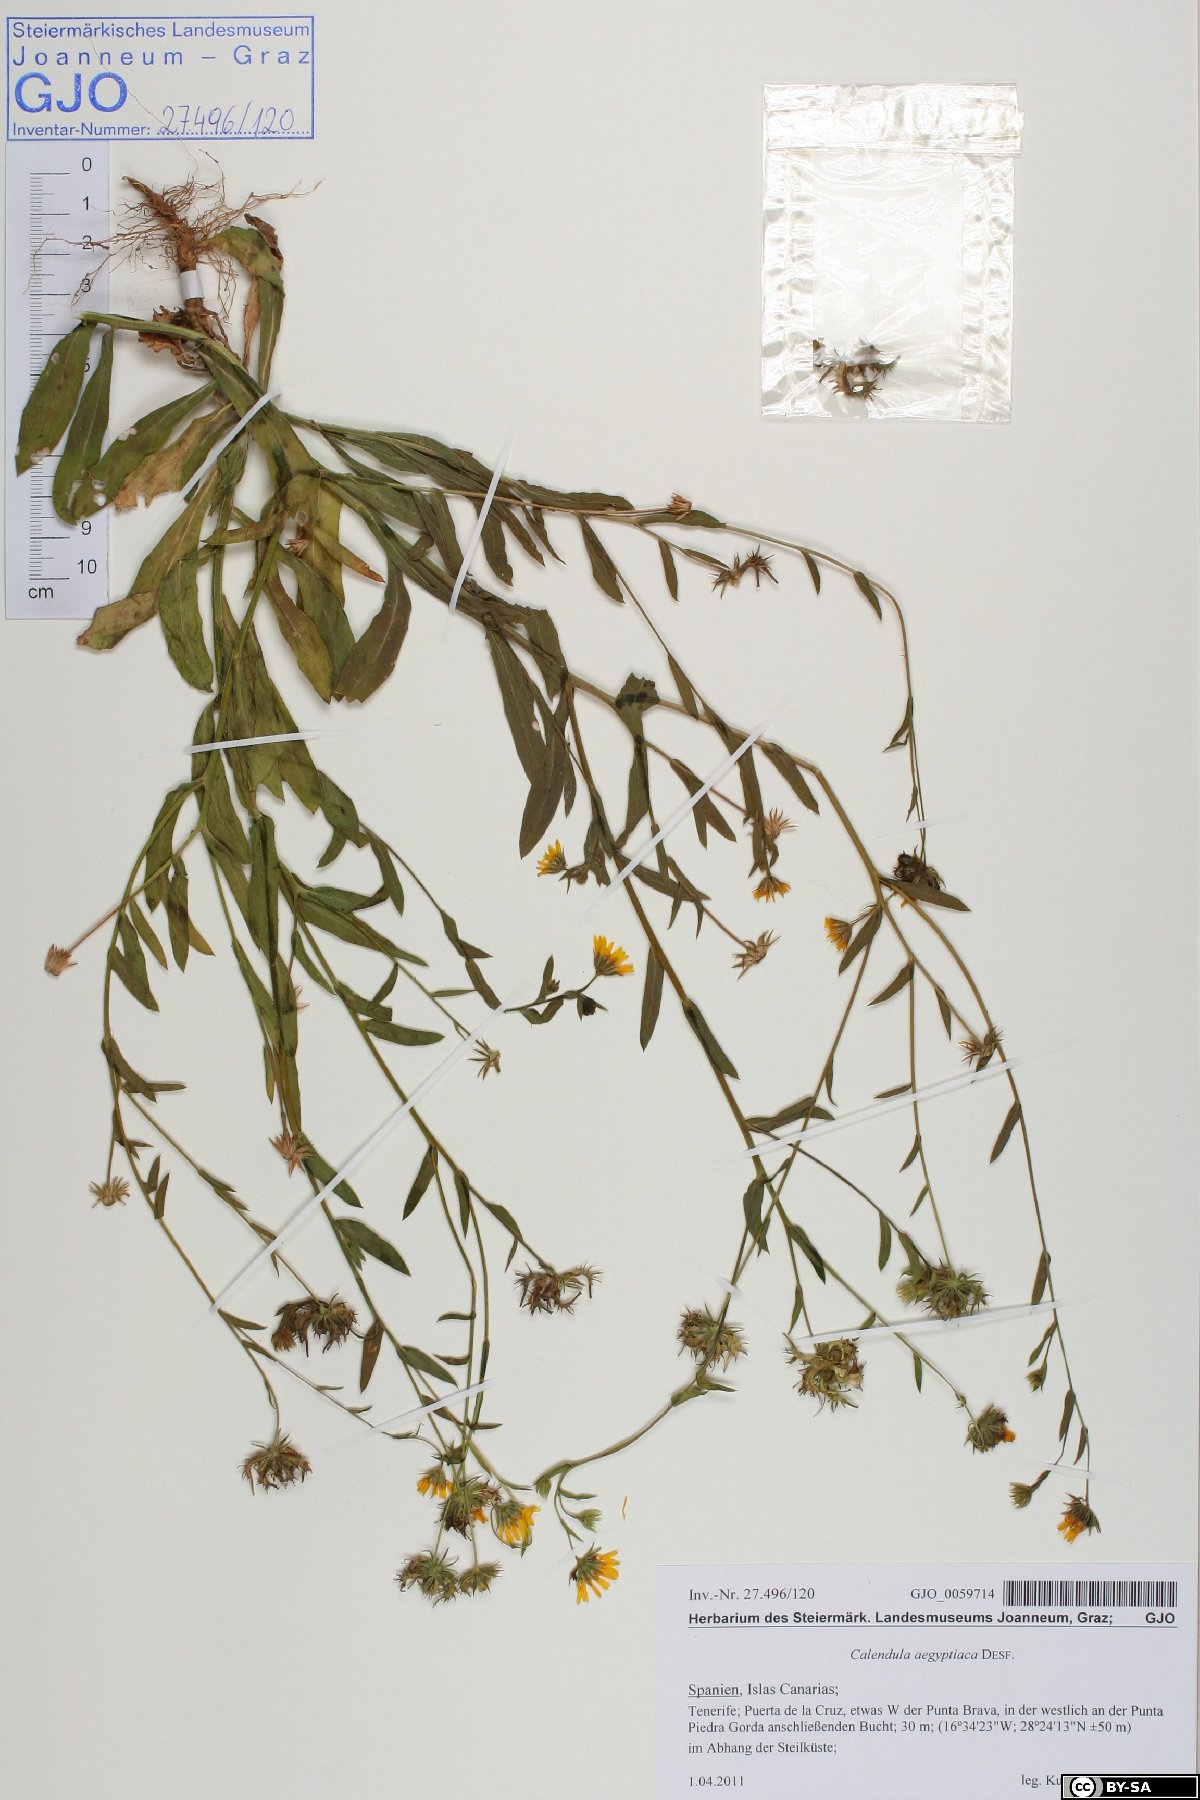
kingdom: Plantae
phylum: Tracheophyta
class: Magnoliopsida
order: Asterales
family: Asteraceae
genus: Calendula
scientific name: Calendula arvensis
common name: Field marigold
